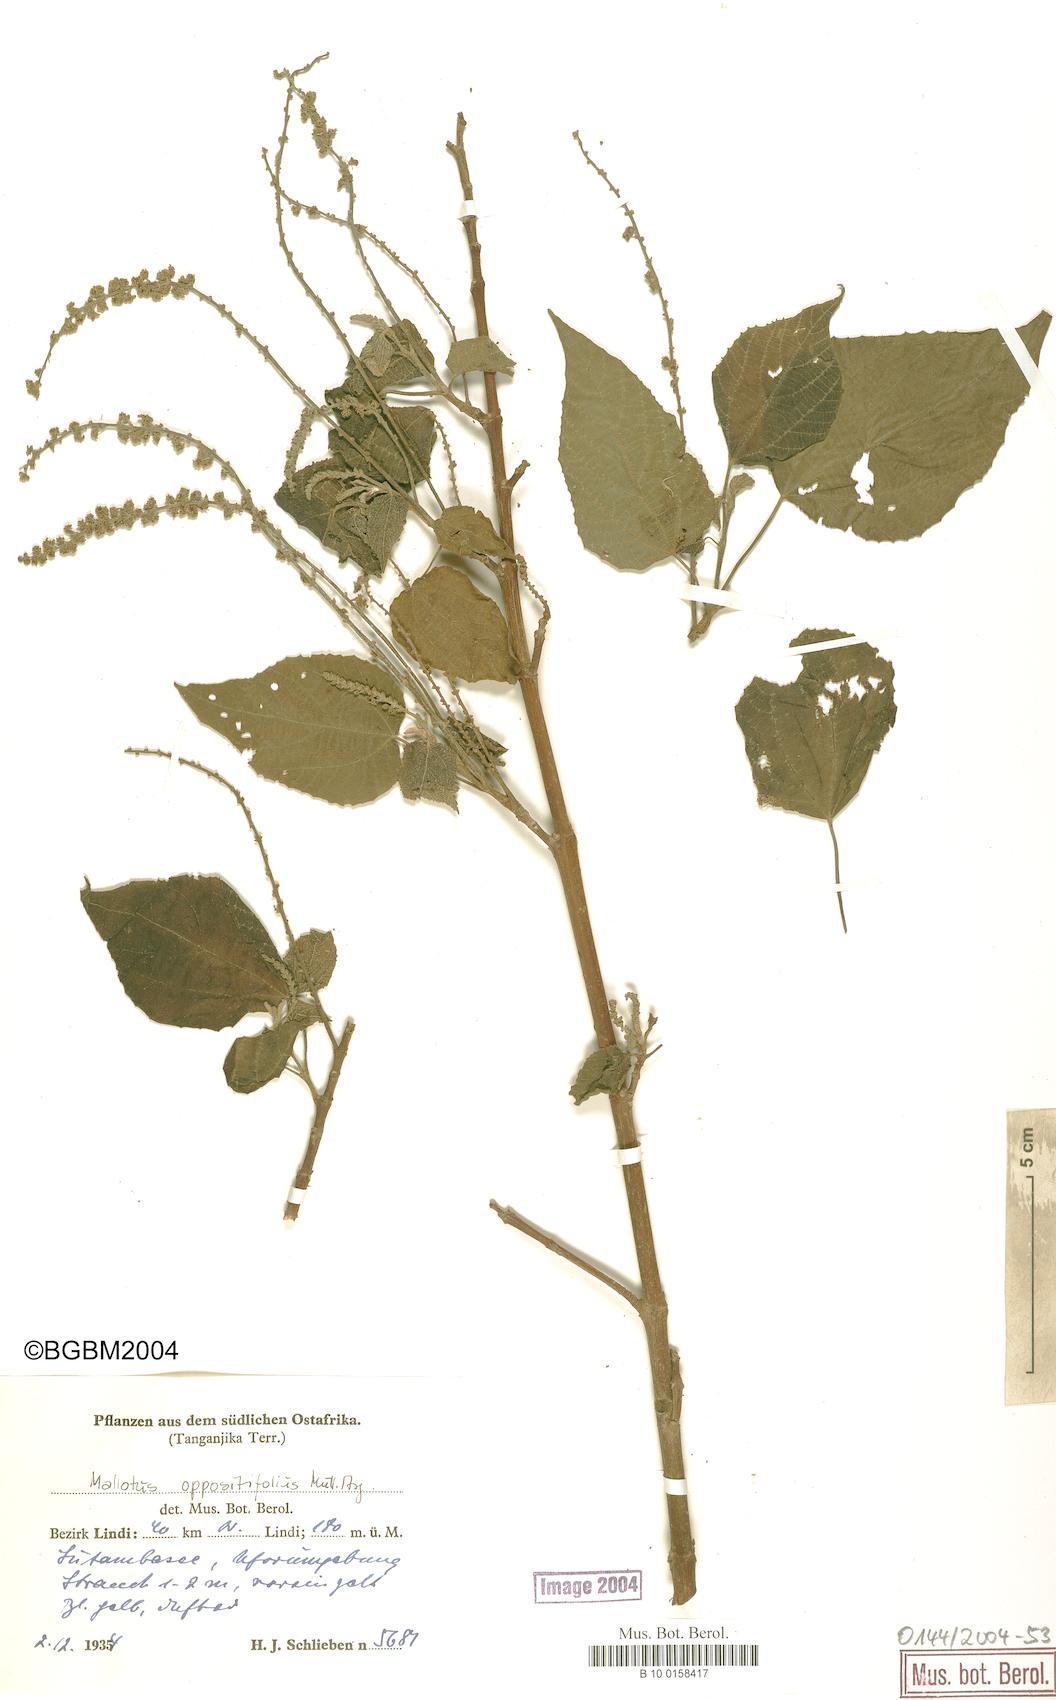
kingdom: Plantae
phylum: Tracheophyta
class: Magnoliopsida
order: Malpighiales
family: Euphorbiaceae
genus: Mallotus
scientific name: Mallotus oppositifolius
